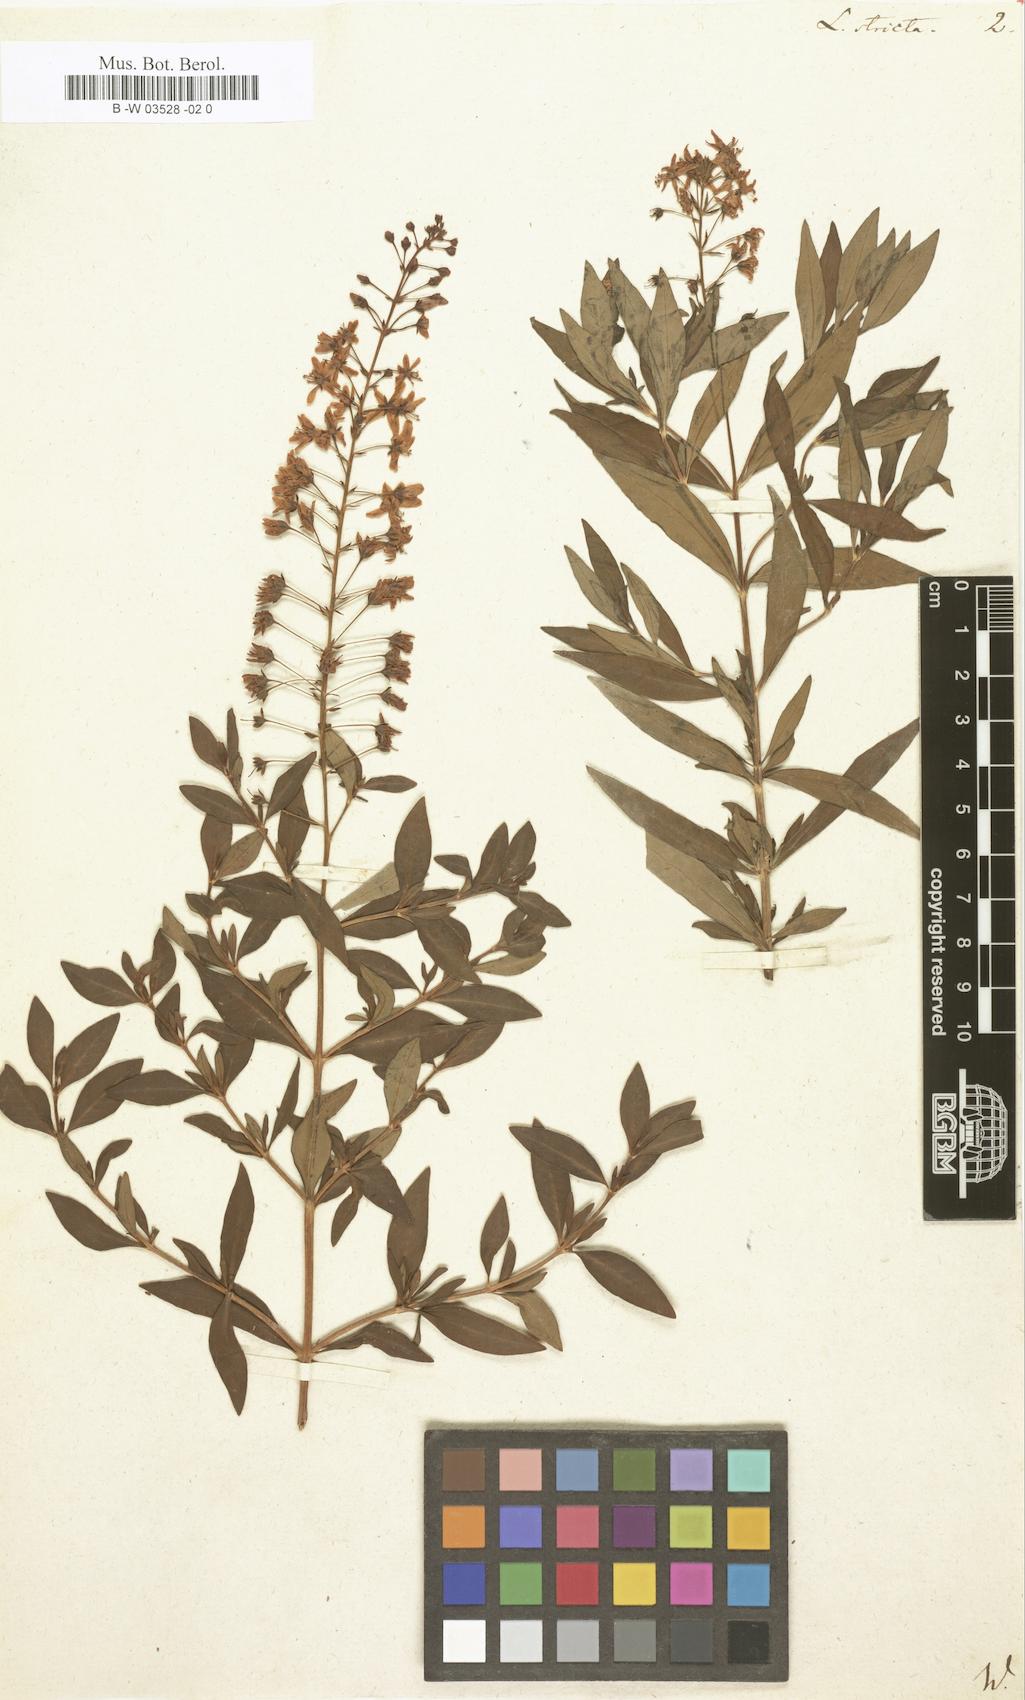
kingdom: Plantae
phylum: Tracheophyta
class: Magnoliopsida
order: Ericales
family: Primulaceae
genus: Lysimachia
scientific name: Lysimachia terrestris
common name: Lake loosestrife
